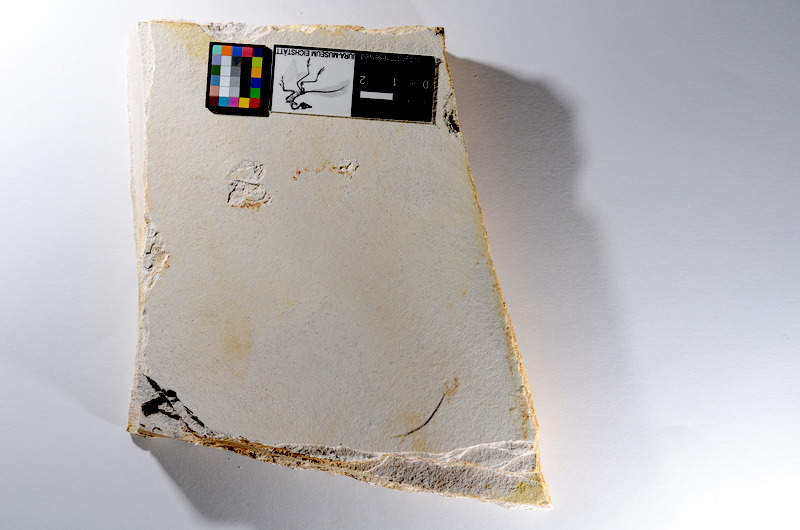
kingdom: Animalia
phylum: Chordata
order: Salmoniformes
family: Orthogonikleithridae
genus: Orthogonikleithrus
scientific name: Orthogonikleithrus hoelli
